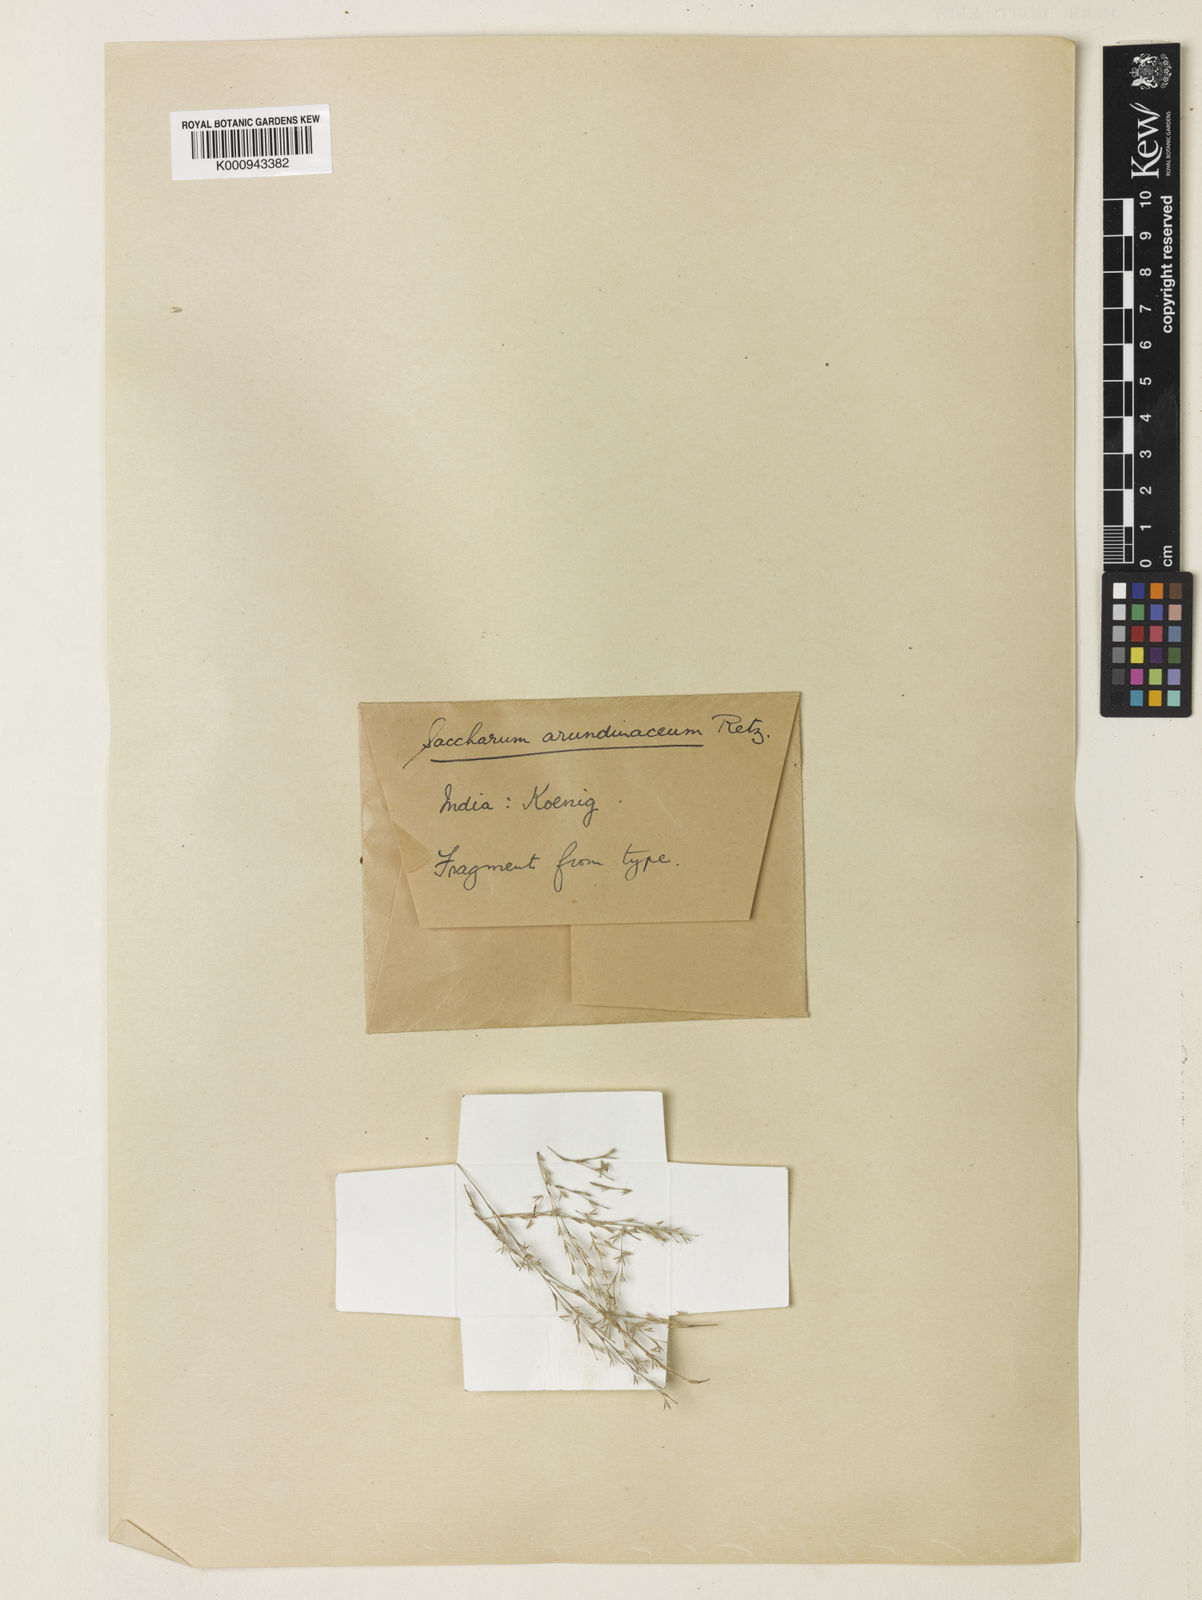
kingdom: Plantae
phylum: Tracheophyta
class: Liliopsida
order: Poales
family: Poaceae
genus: Tripidium
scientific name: Tripidium arundinaceum
